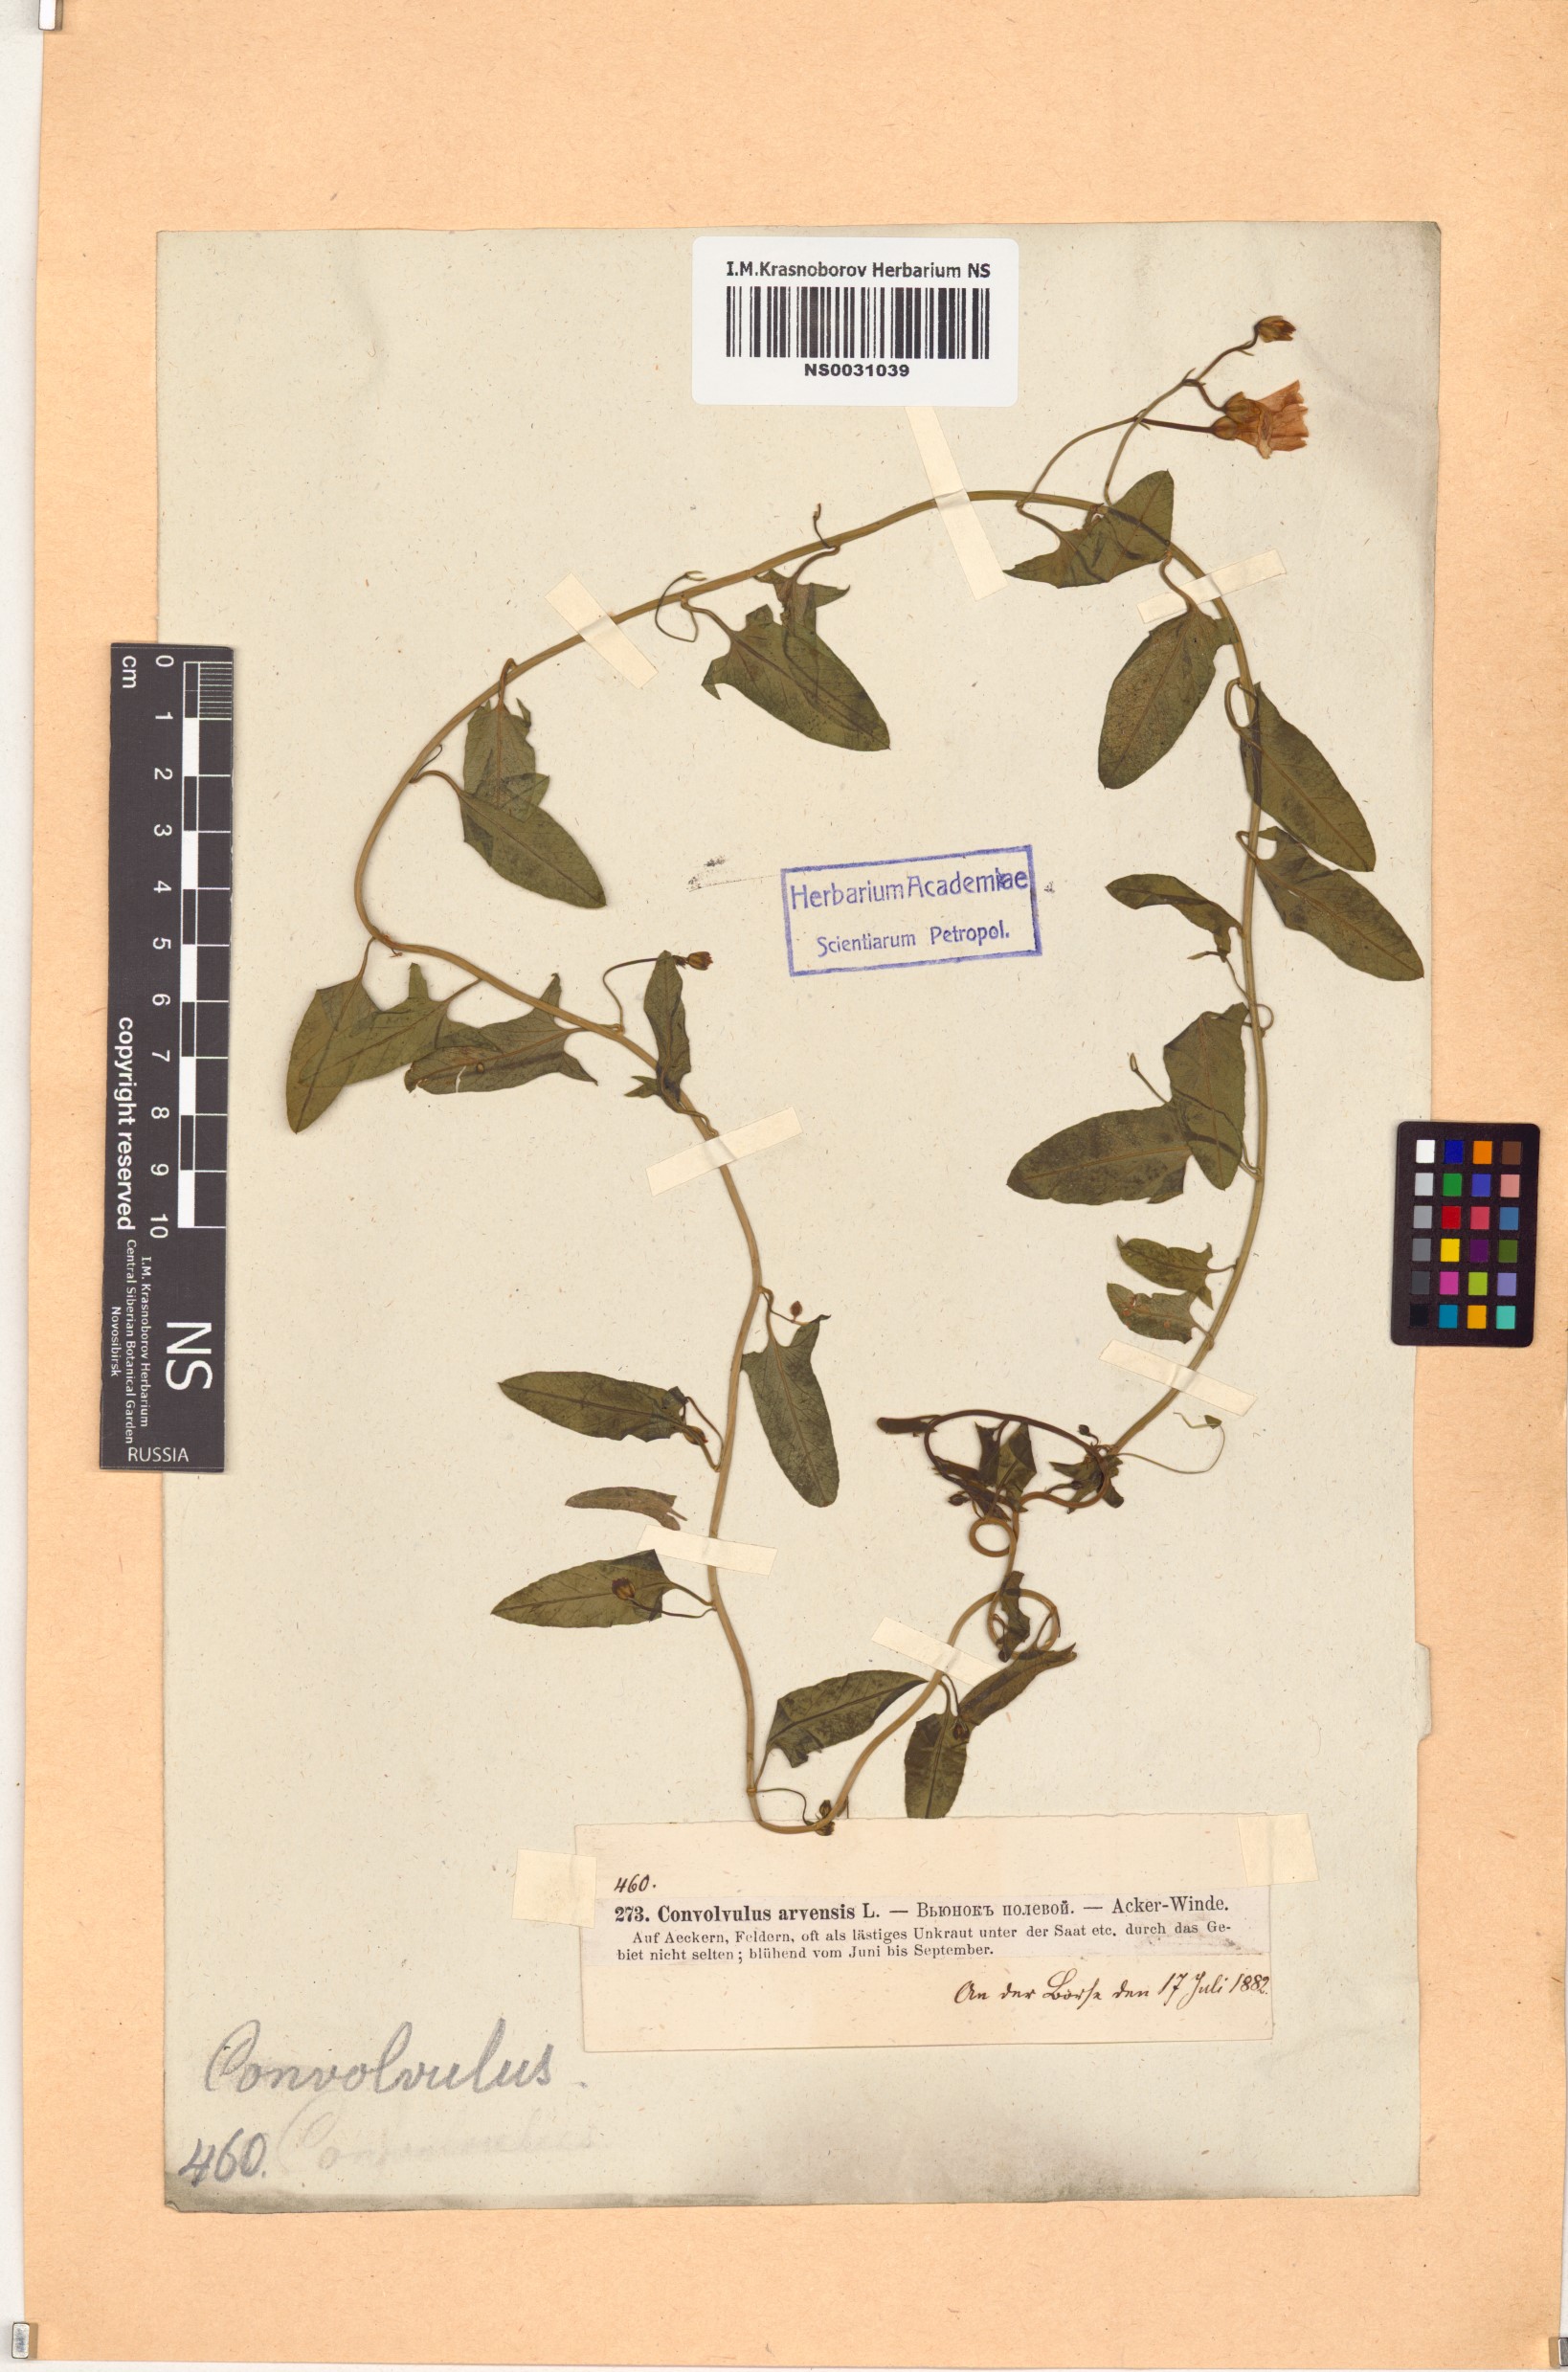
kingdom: Plantae
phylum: Tracheophyta
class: Magnoliopsida
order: Solanales
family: Convolvulaceae
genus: Convolvulus
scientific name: Convolvulus arvensis
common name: Field bindweed
